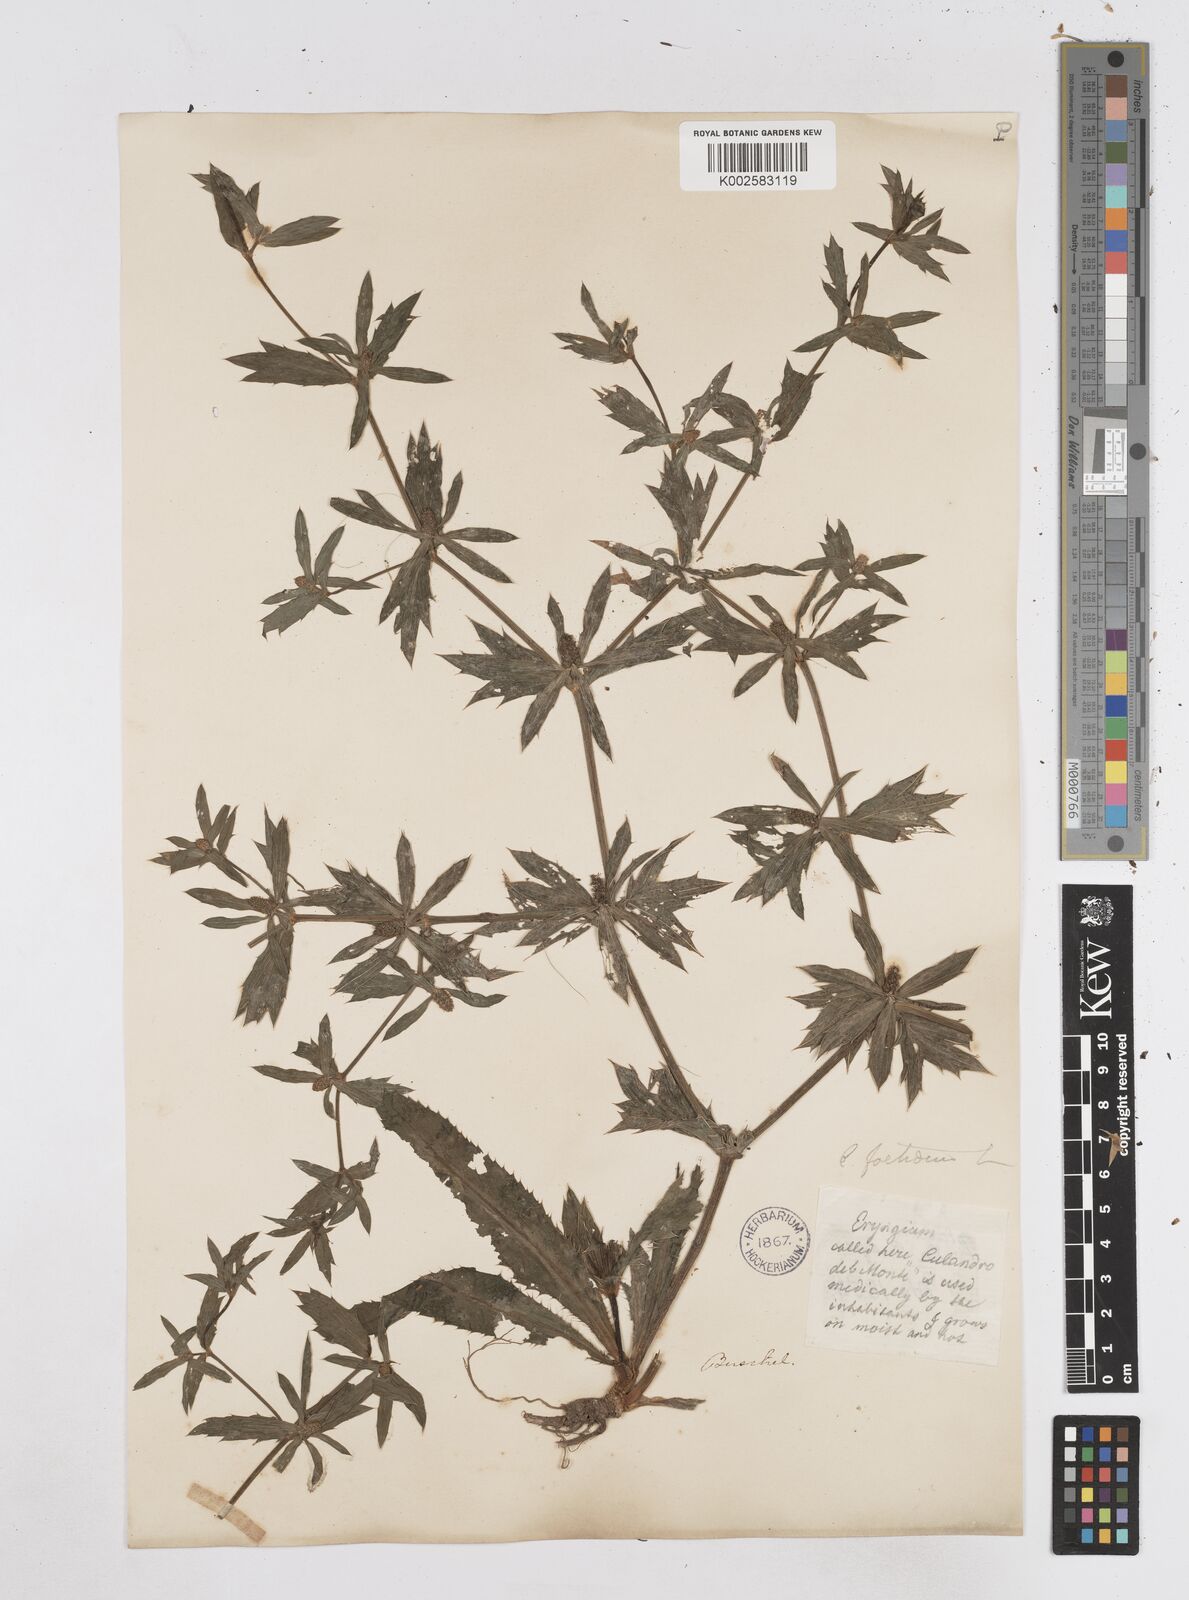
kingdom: Plantae
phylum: Tracheophyta
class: Magnoliopsida
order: Apiales
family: Apiaceae
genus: Eryngium
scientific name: Eryngium foetidum
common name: Fitweed
